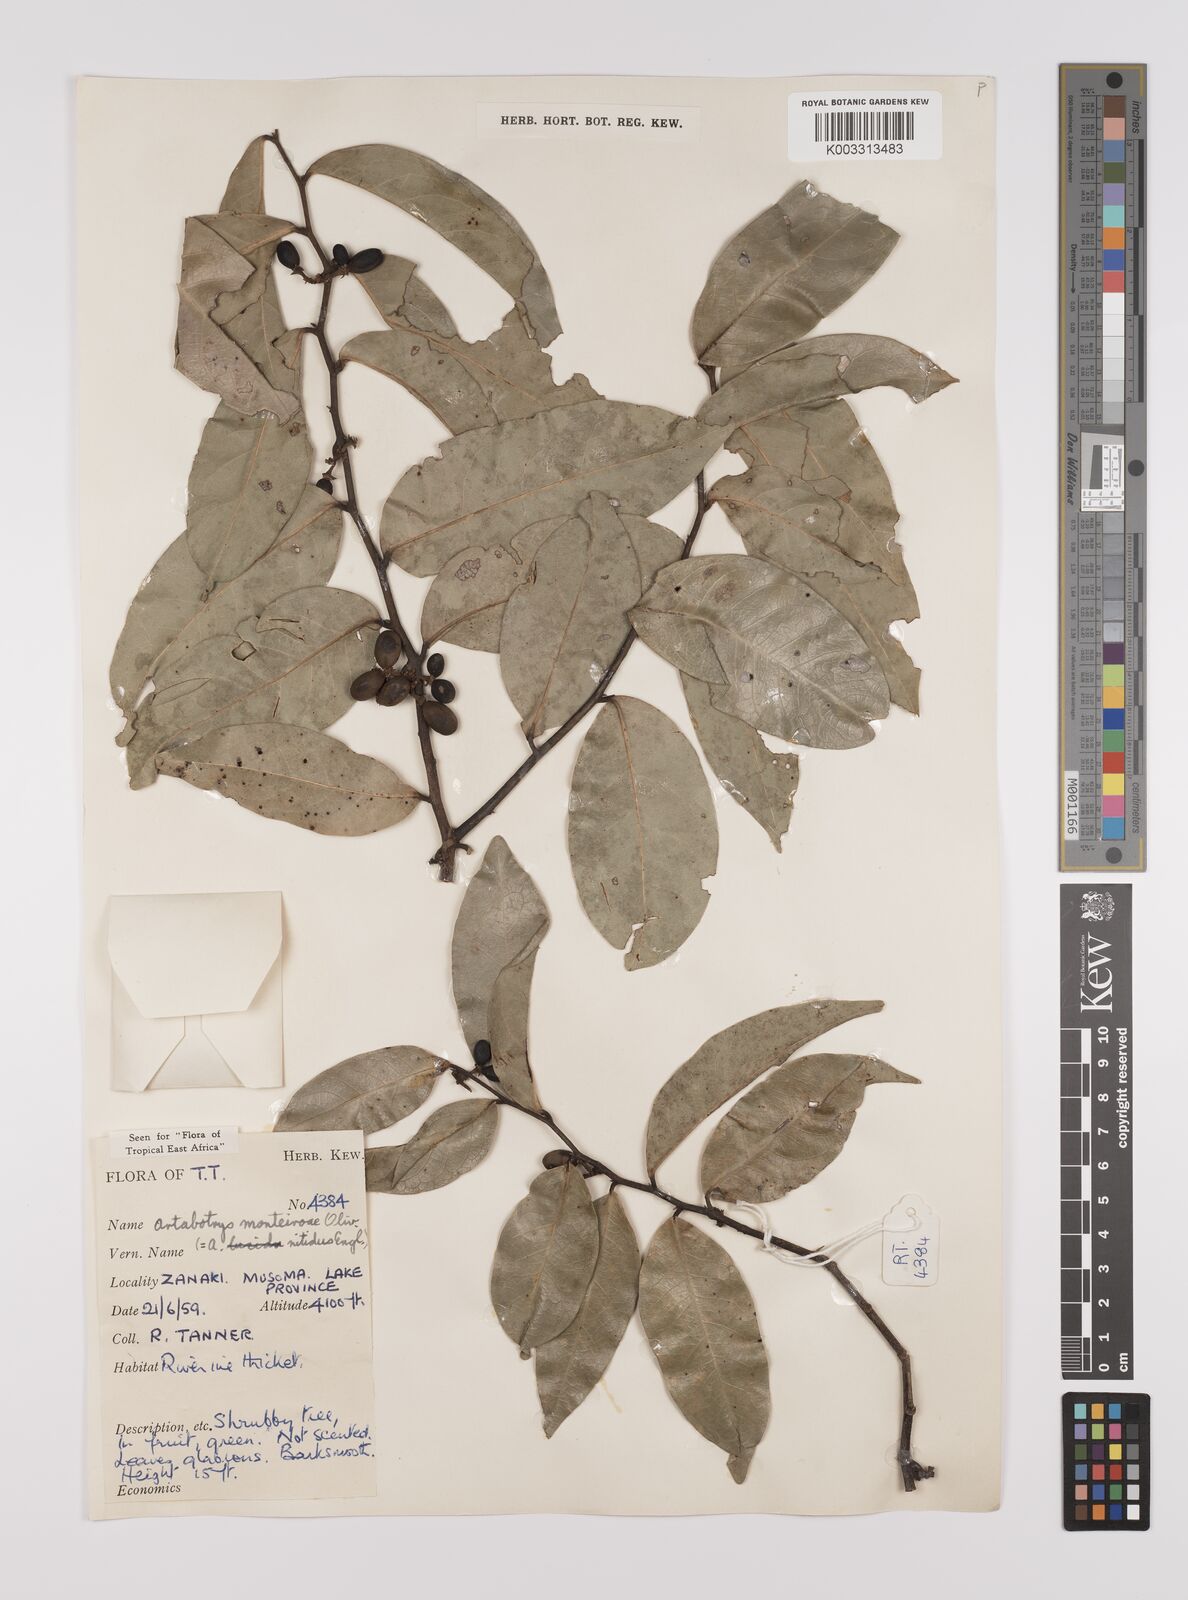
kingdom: Plantae
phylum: Tracheophyta
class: Magnoliopsida
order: Magnoliales
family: Annonaceae
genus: Artabotrys
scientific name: Artabotrys monteiroae
